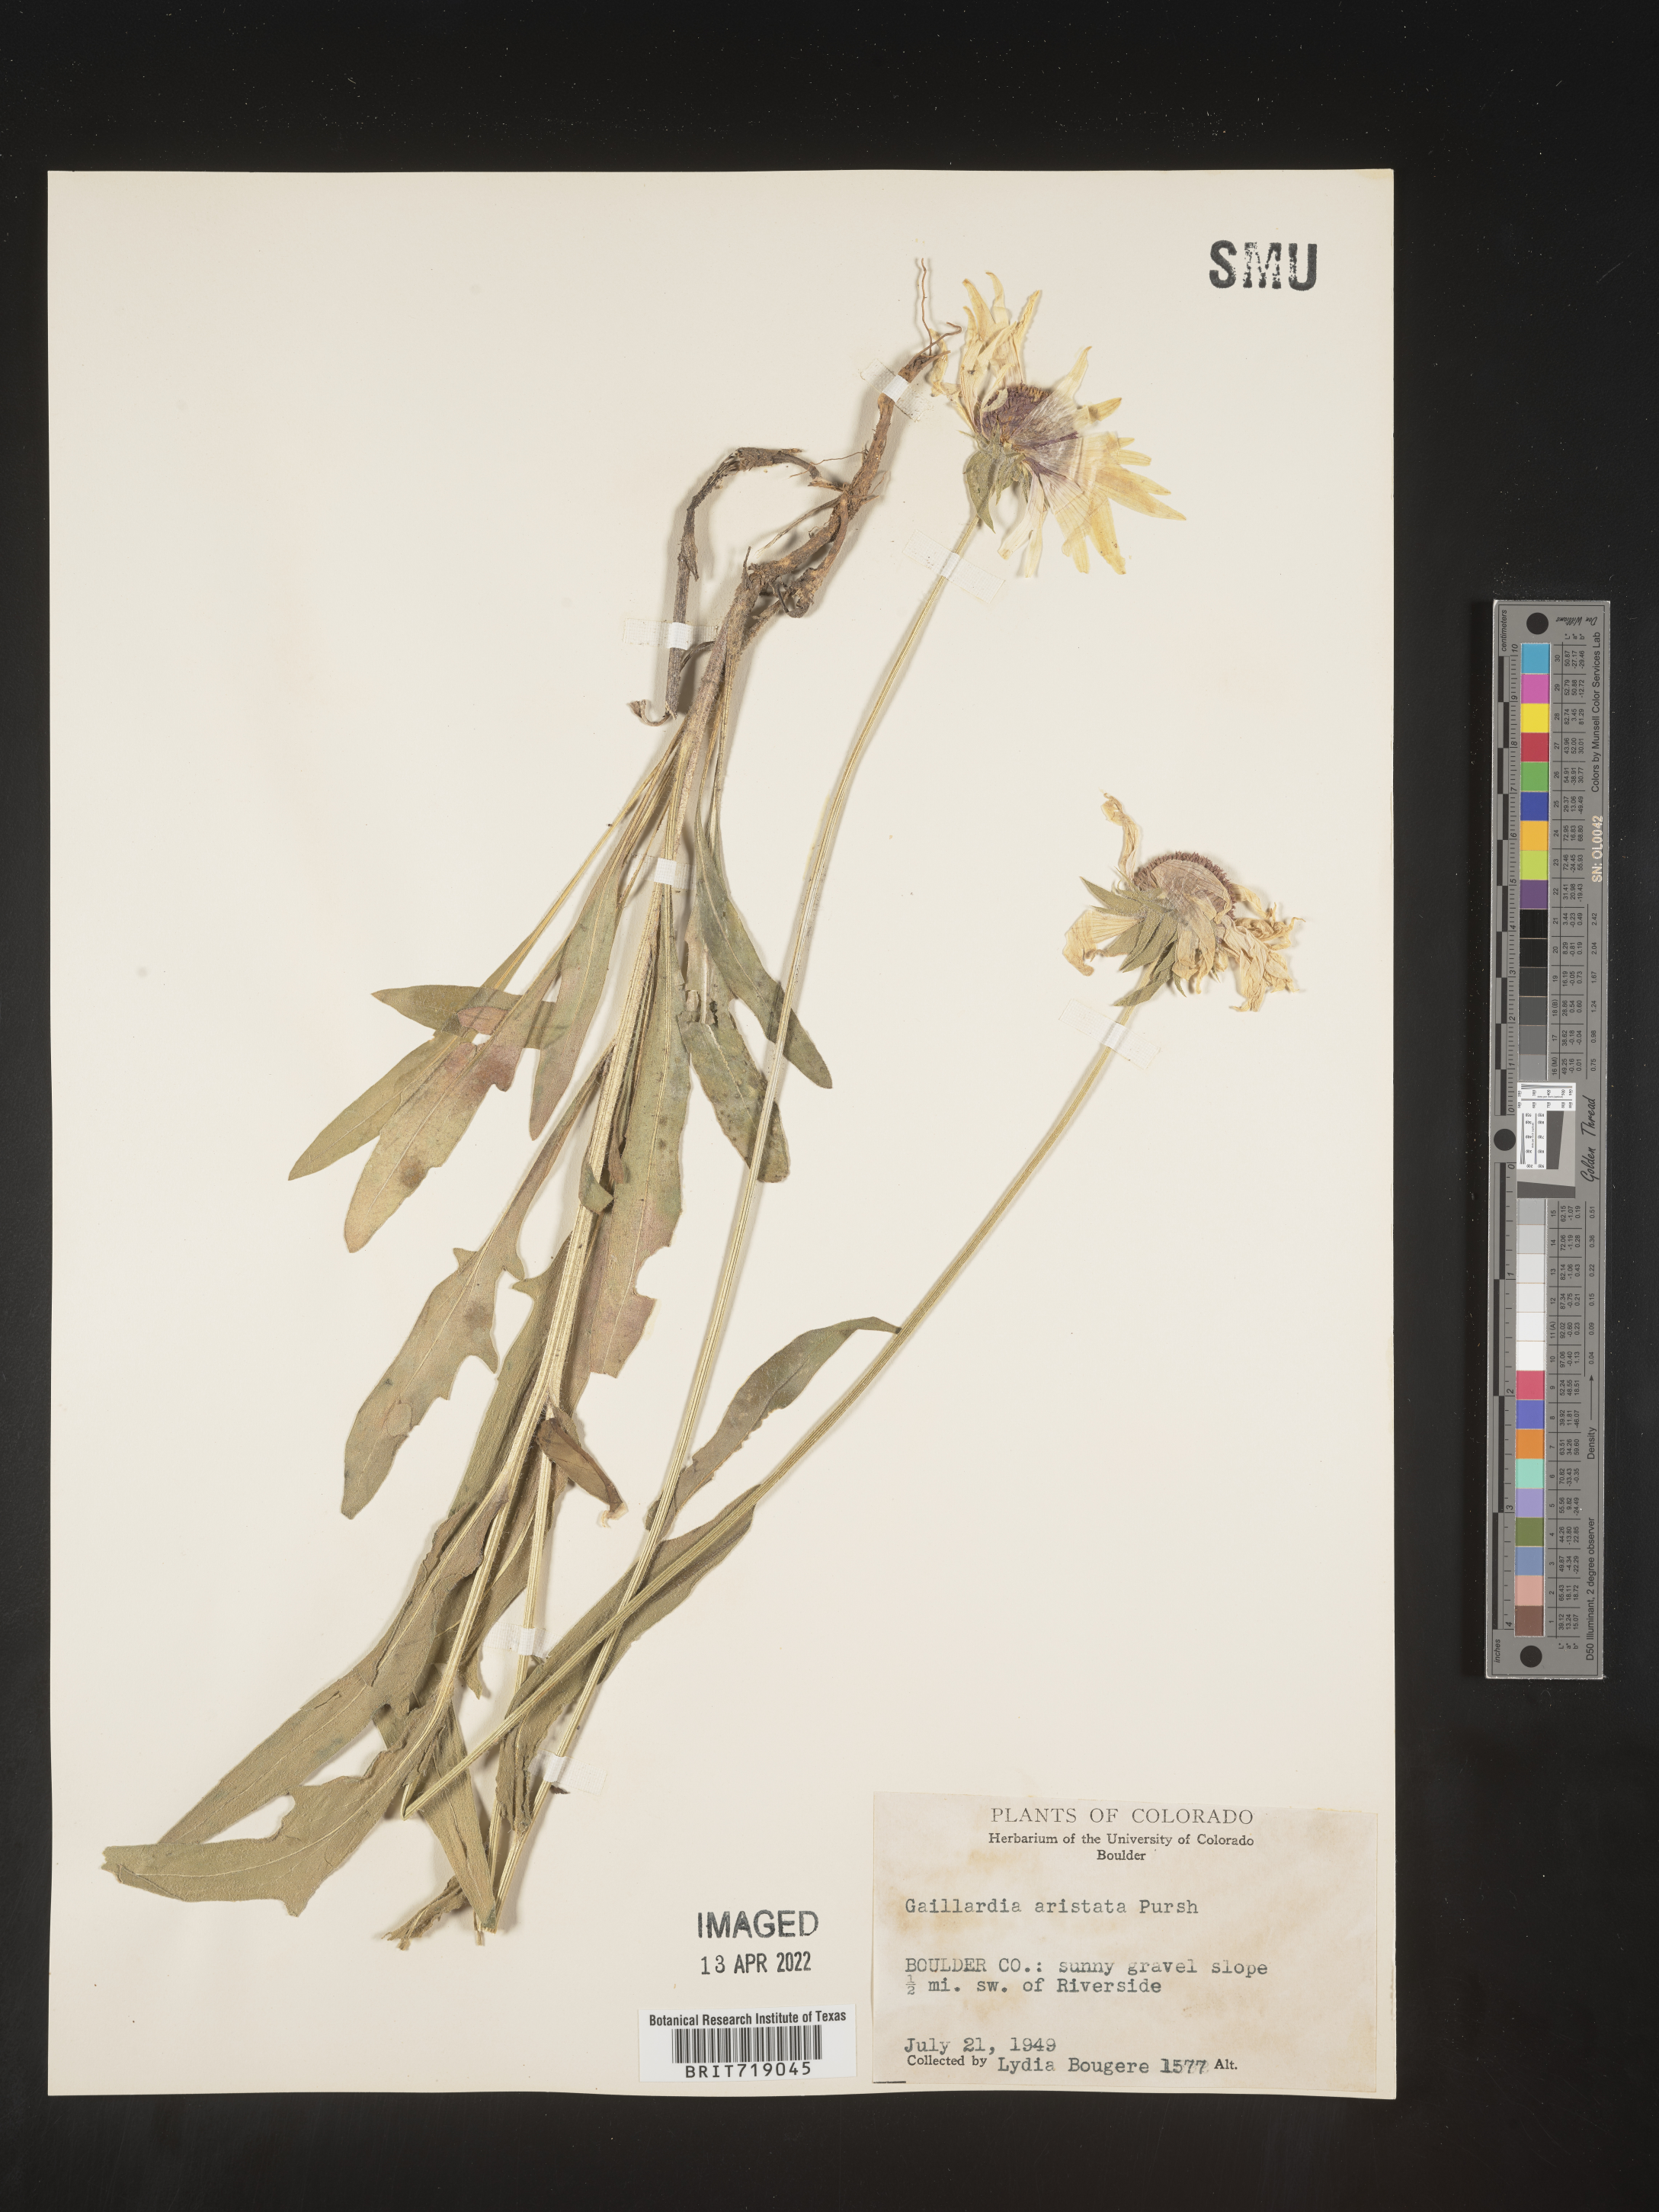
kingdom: Plantae
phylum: Tracheophyta
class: Magnoliopsida
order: Asterales
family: Asteraceae
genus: Gaillardia
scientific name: Gaillardia aristata
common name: Blanket-flower
